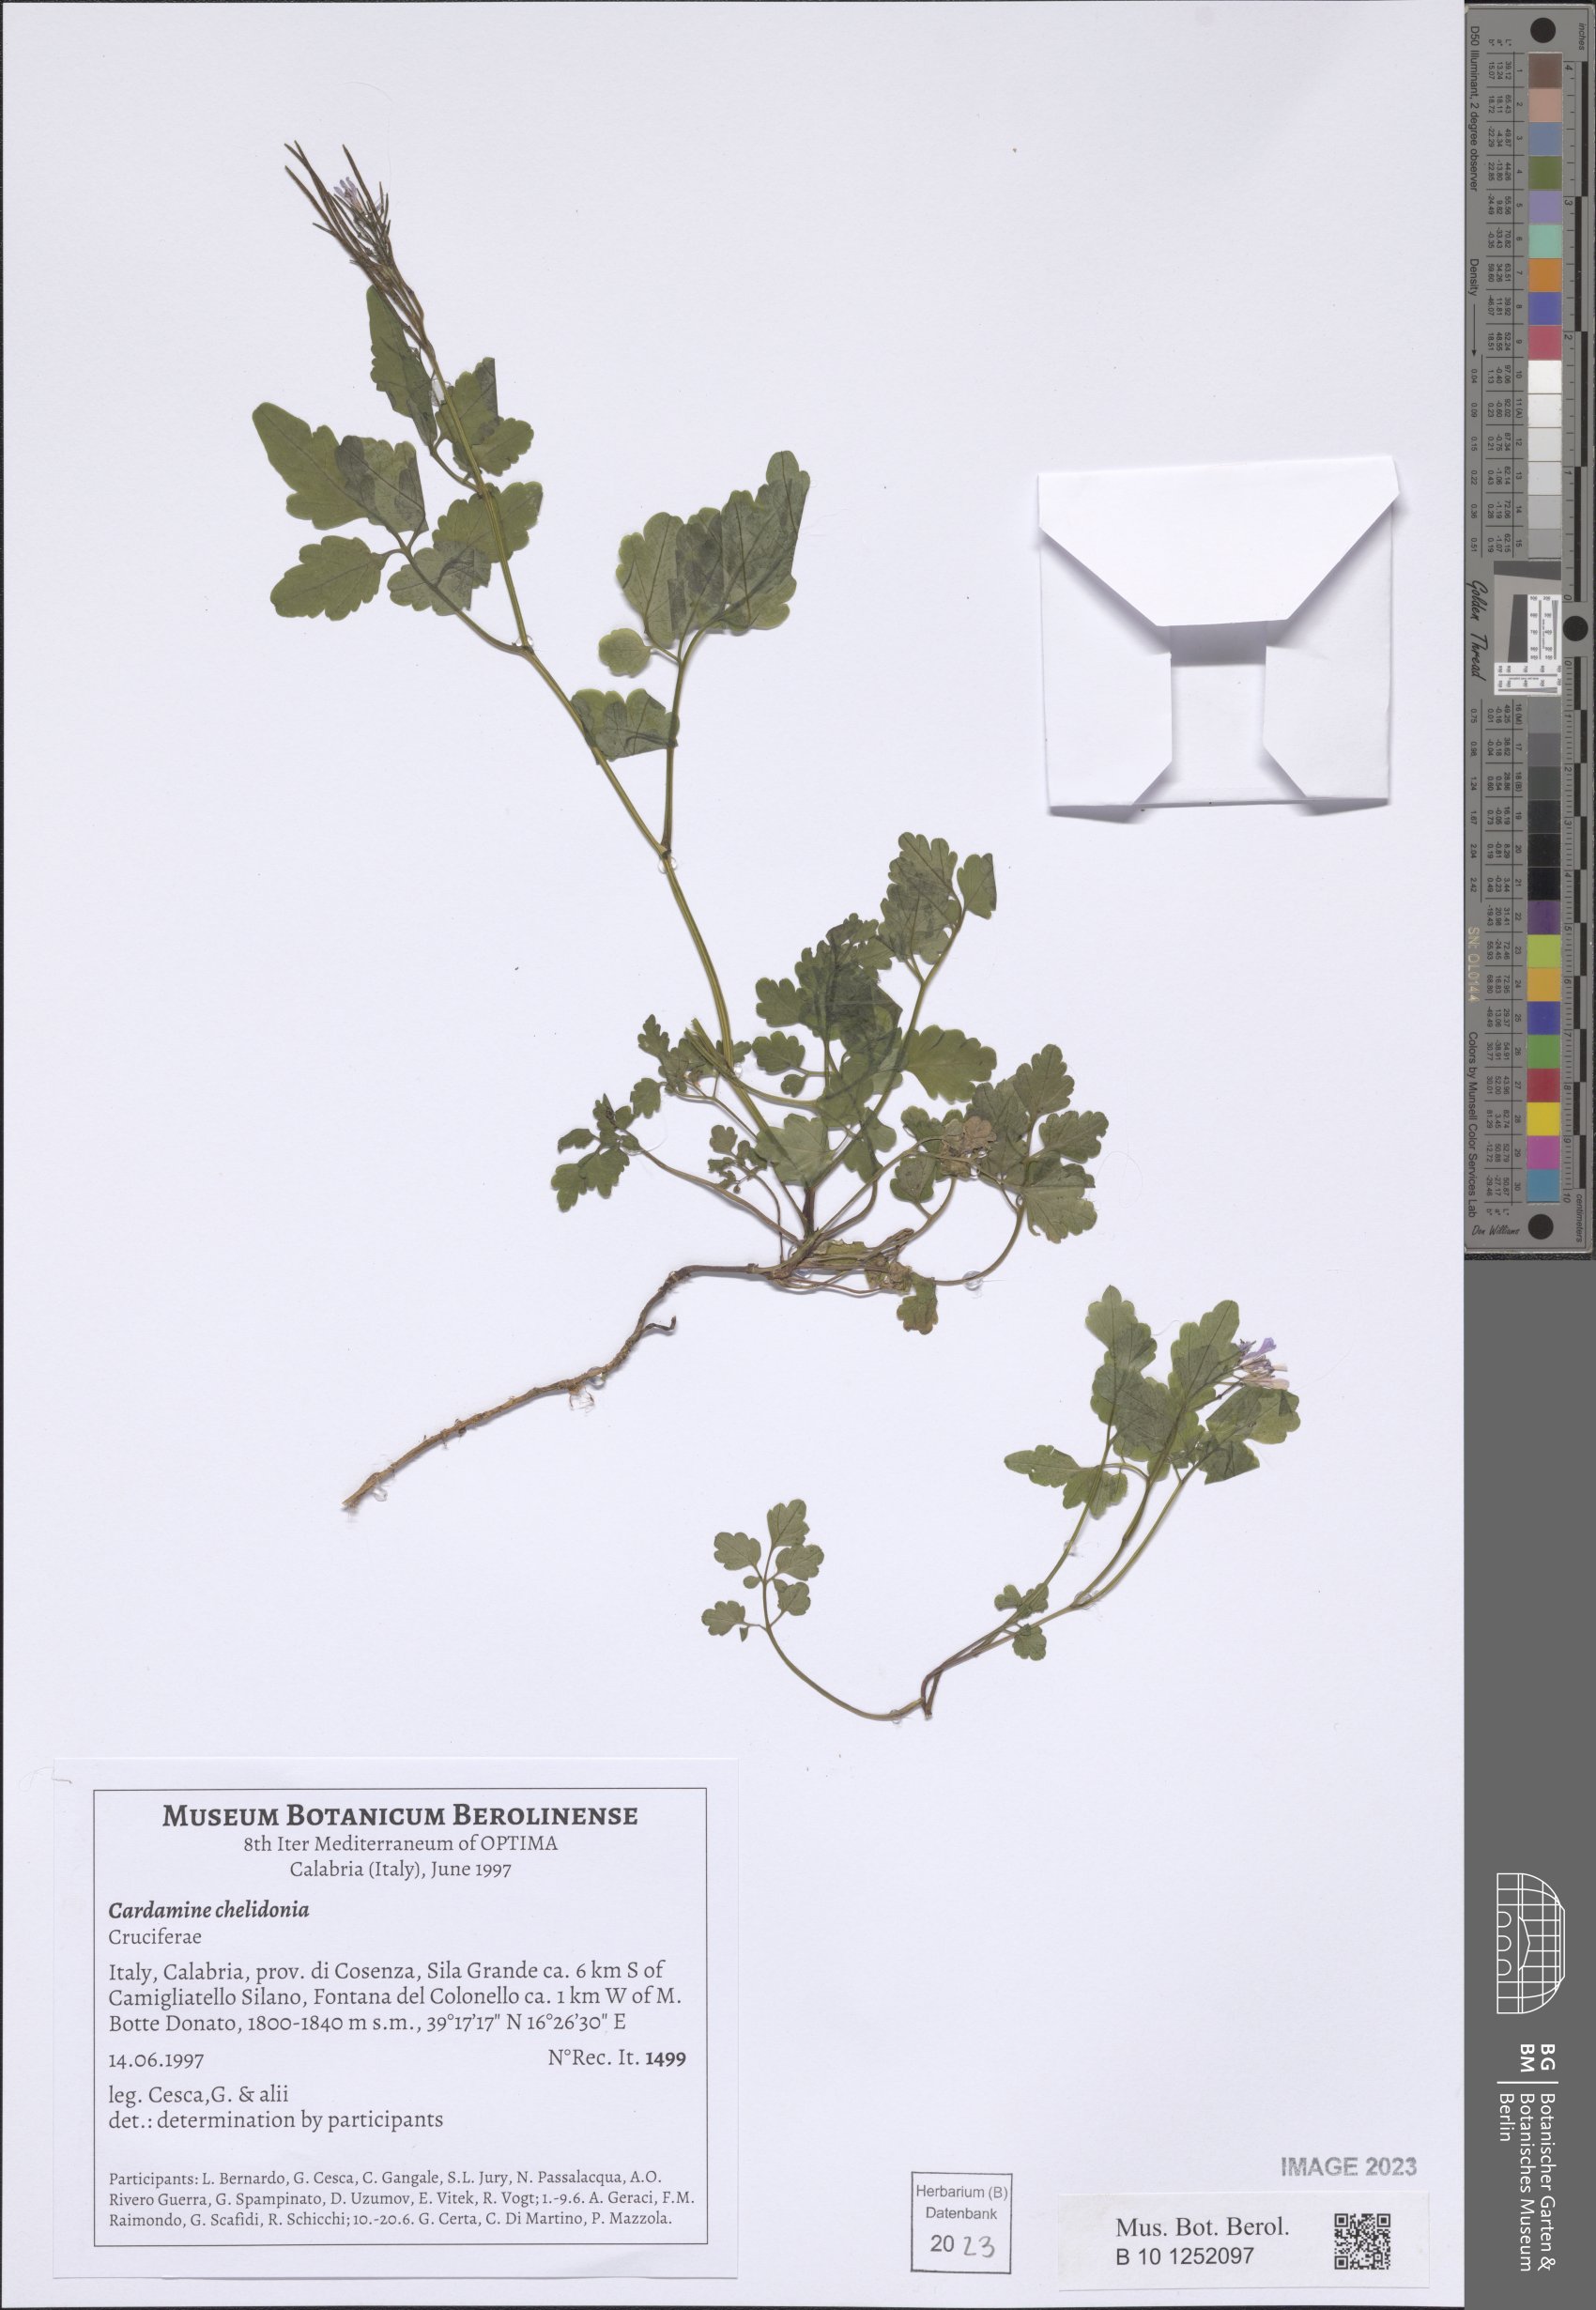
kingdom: Plantae
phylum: Tracheophyta
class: Magnoliopsida
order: Brassicales
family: Brassicaceae
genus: Cardamine
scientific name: Cardamine chelidonia
